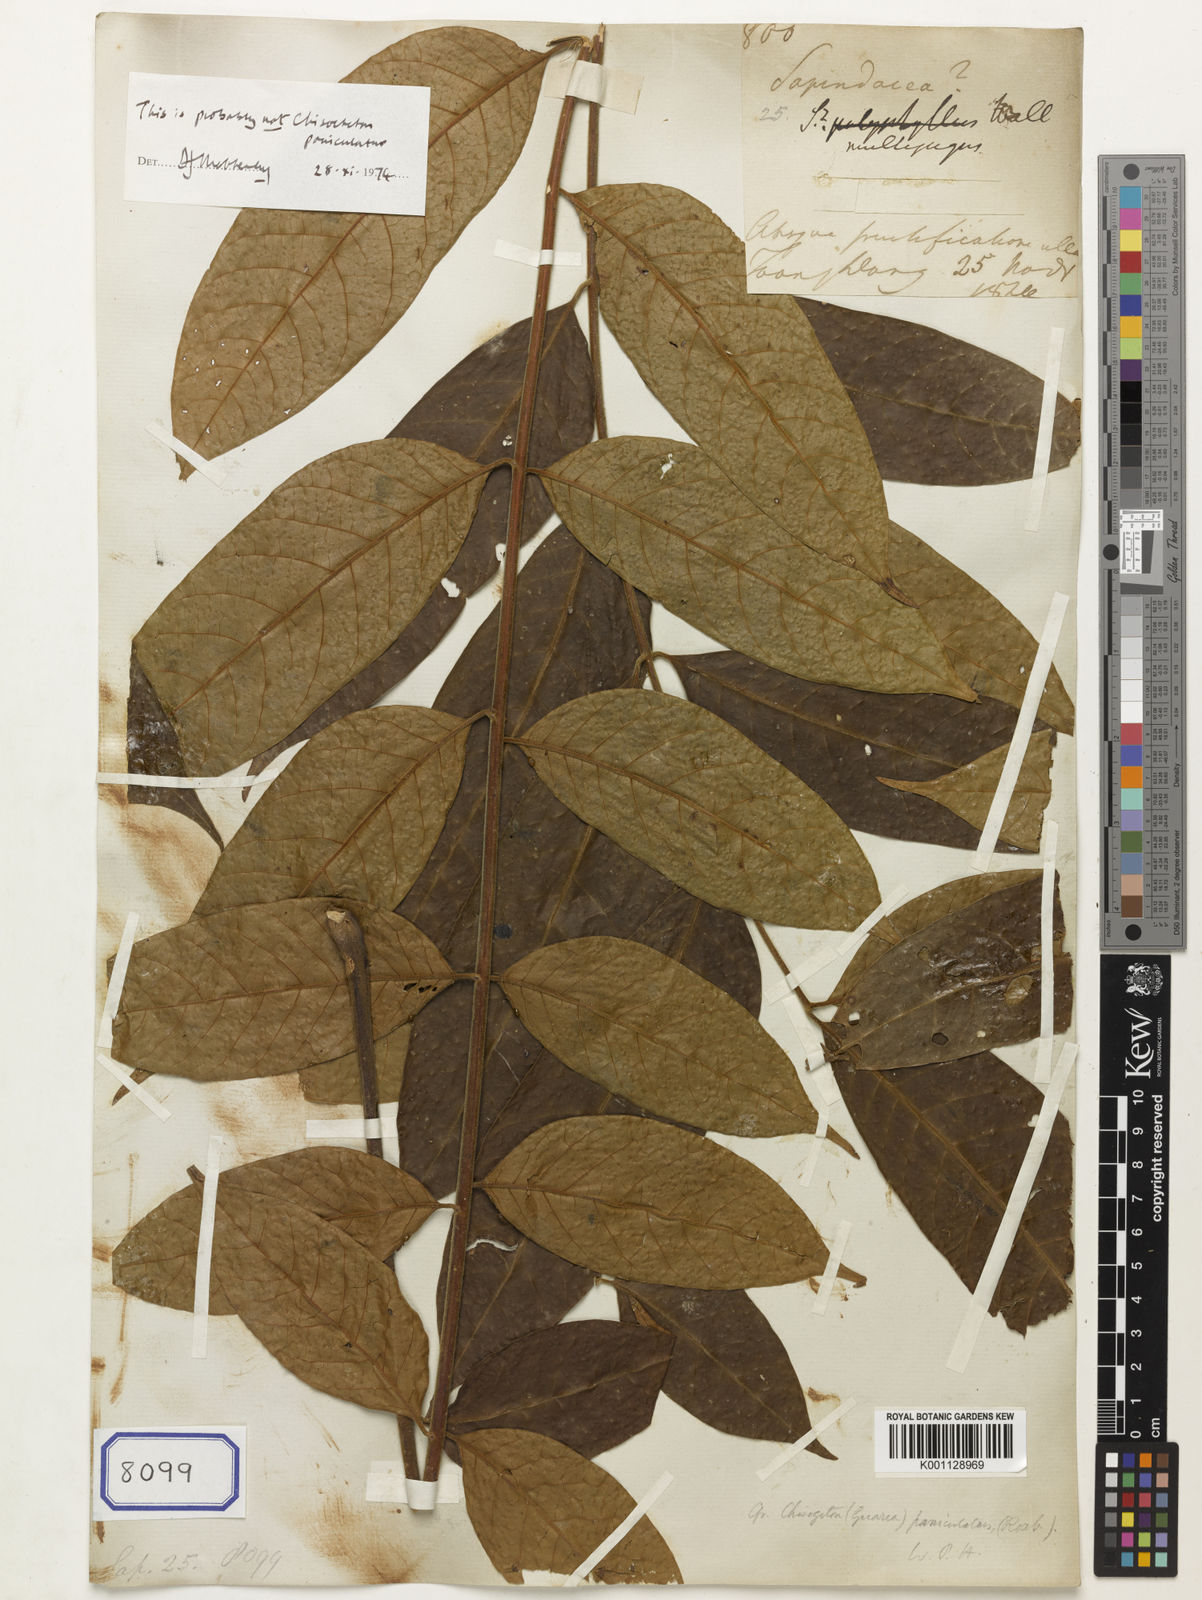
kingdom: Plantae
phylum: Tracheophyta
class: Magnoliopsida
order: Sapindales
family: Meliaceae
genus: Chukrasia
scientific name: Chukrasia tabularis
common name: Chittagong wood
